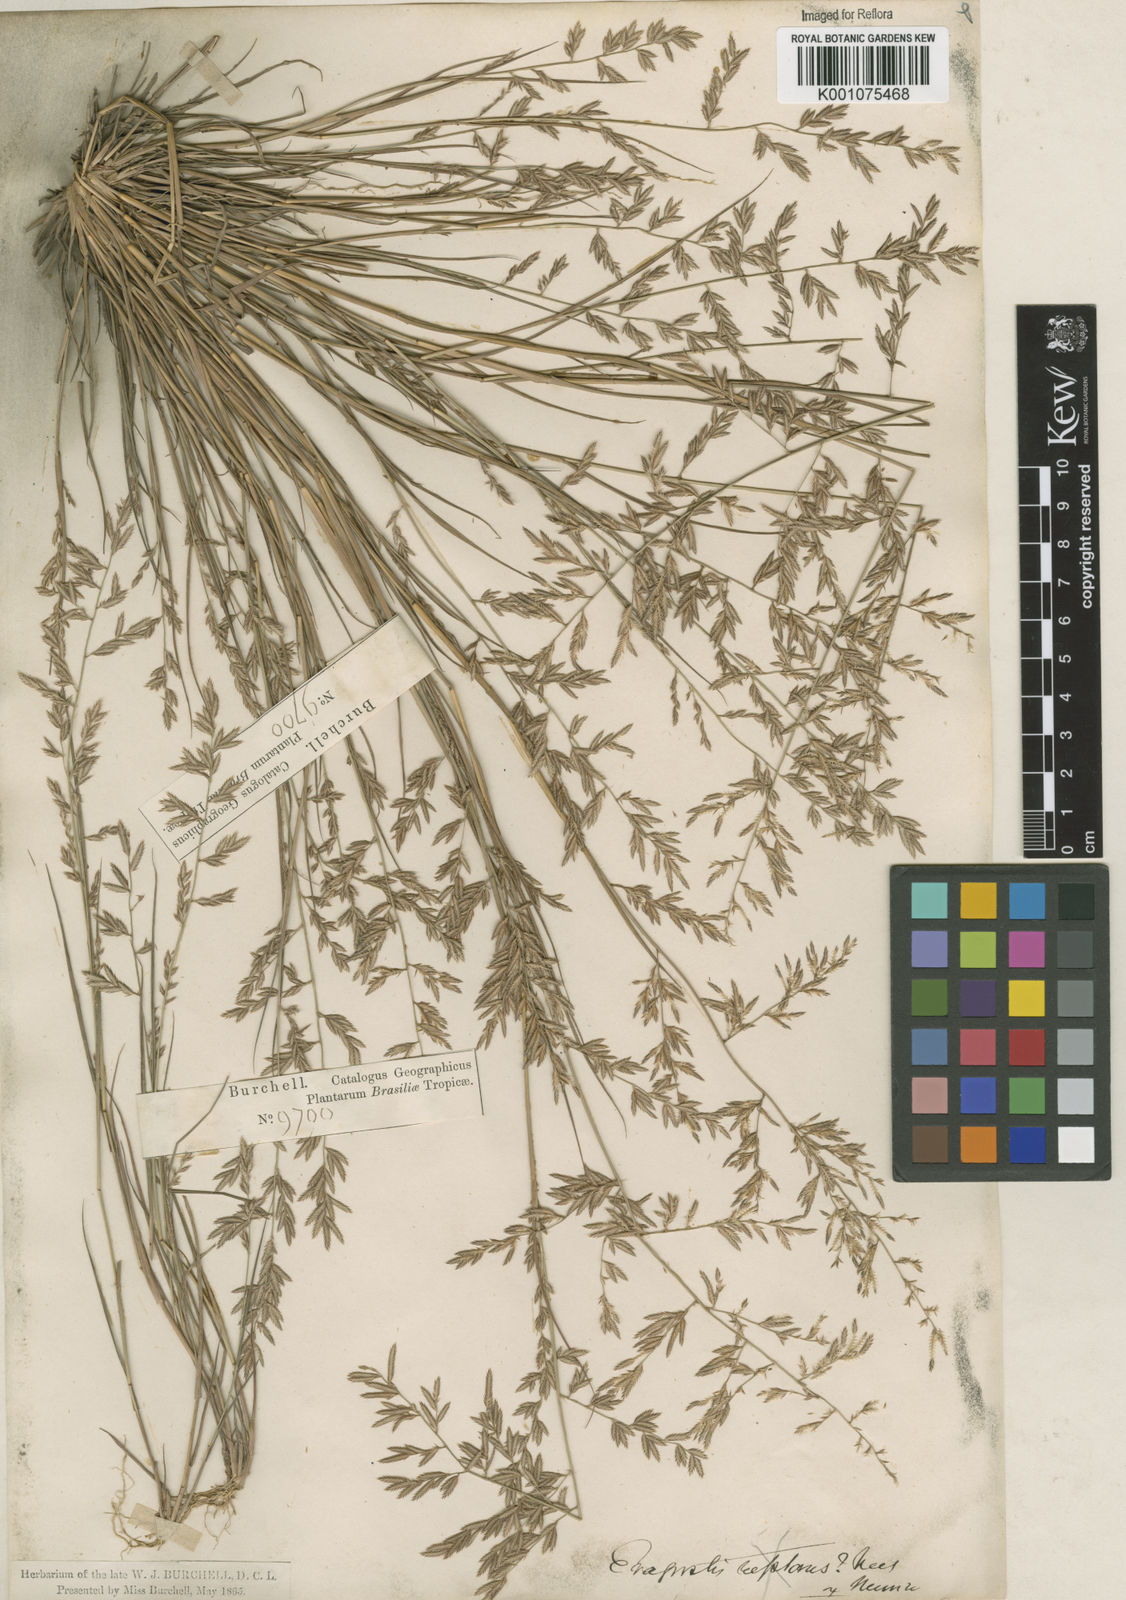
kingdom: Plantae
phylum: Tracheophyta
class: Liliopsida
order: Poales
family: Poaceae
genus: Eragrostis
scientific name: Eragrostis maypurensis
